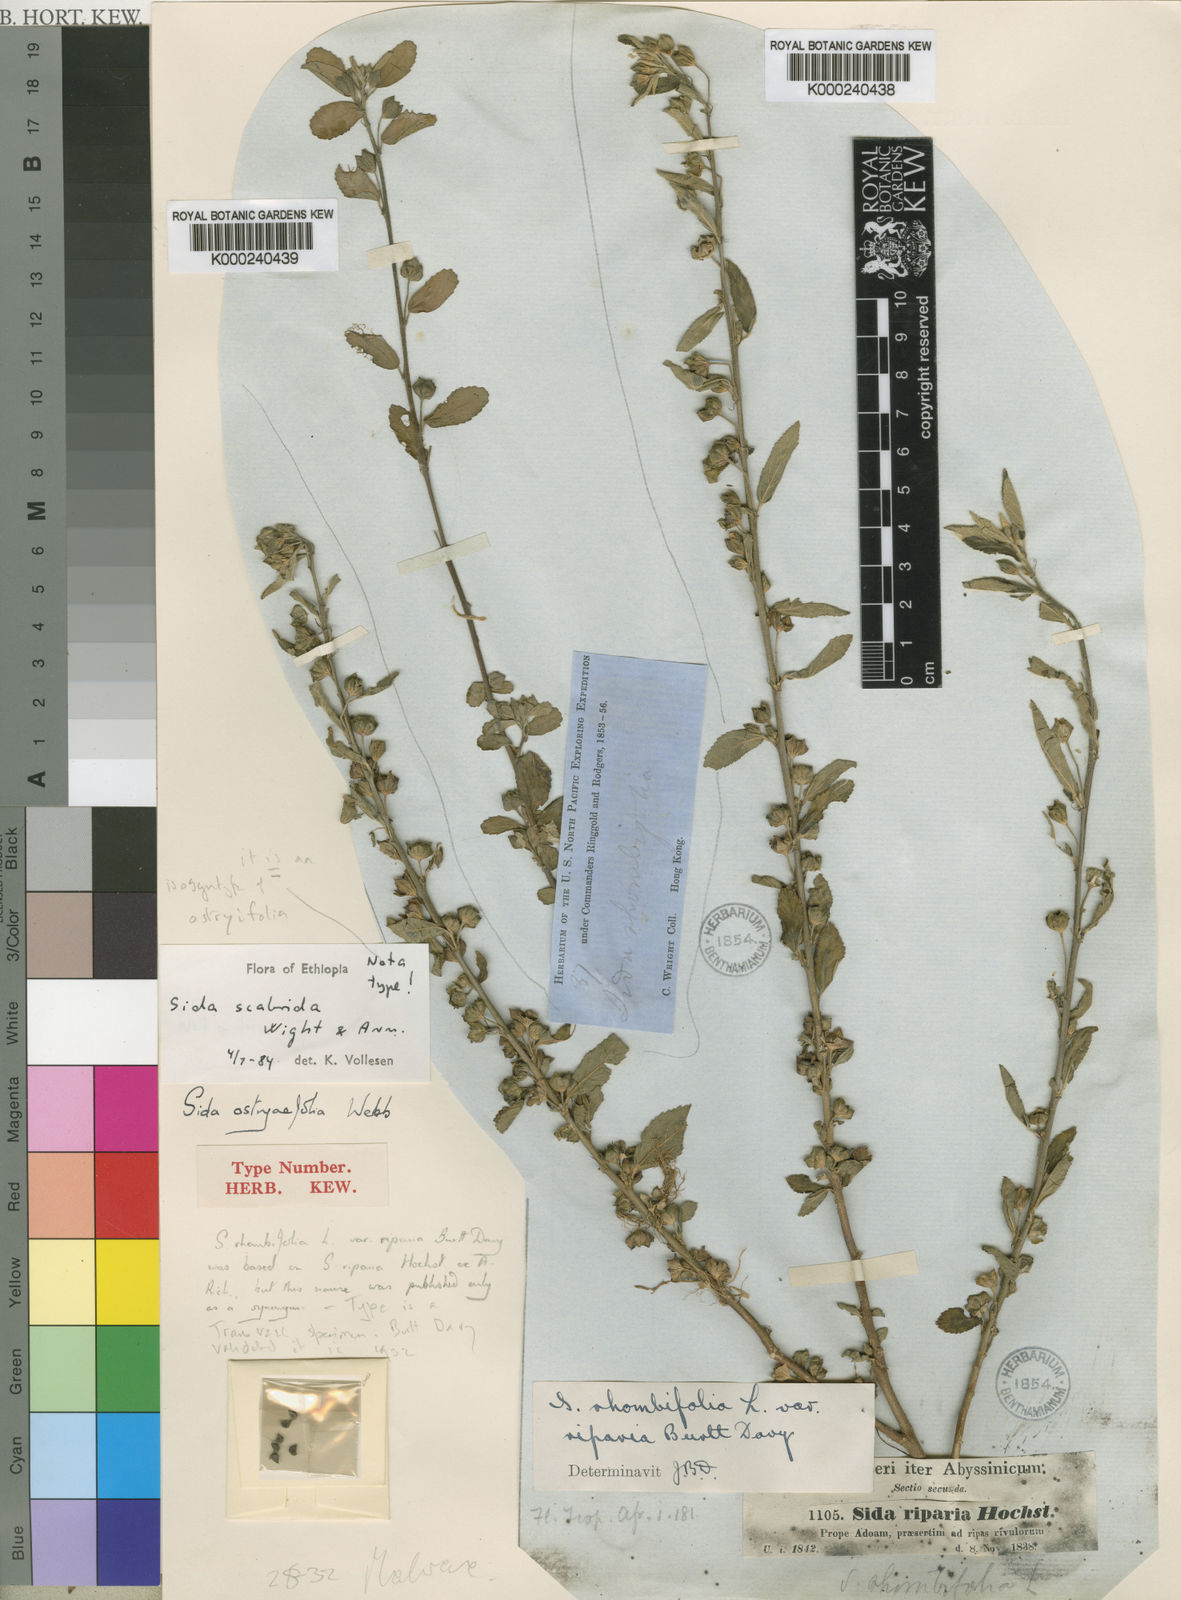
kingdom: Plantae
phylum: Tracheophyta
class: Magnoliopsida
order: Malvales
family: Malvaceae
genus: Sida
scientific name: Sida rhombifolia
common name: Queensland-hemp
